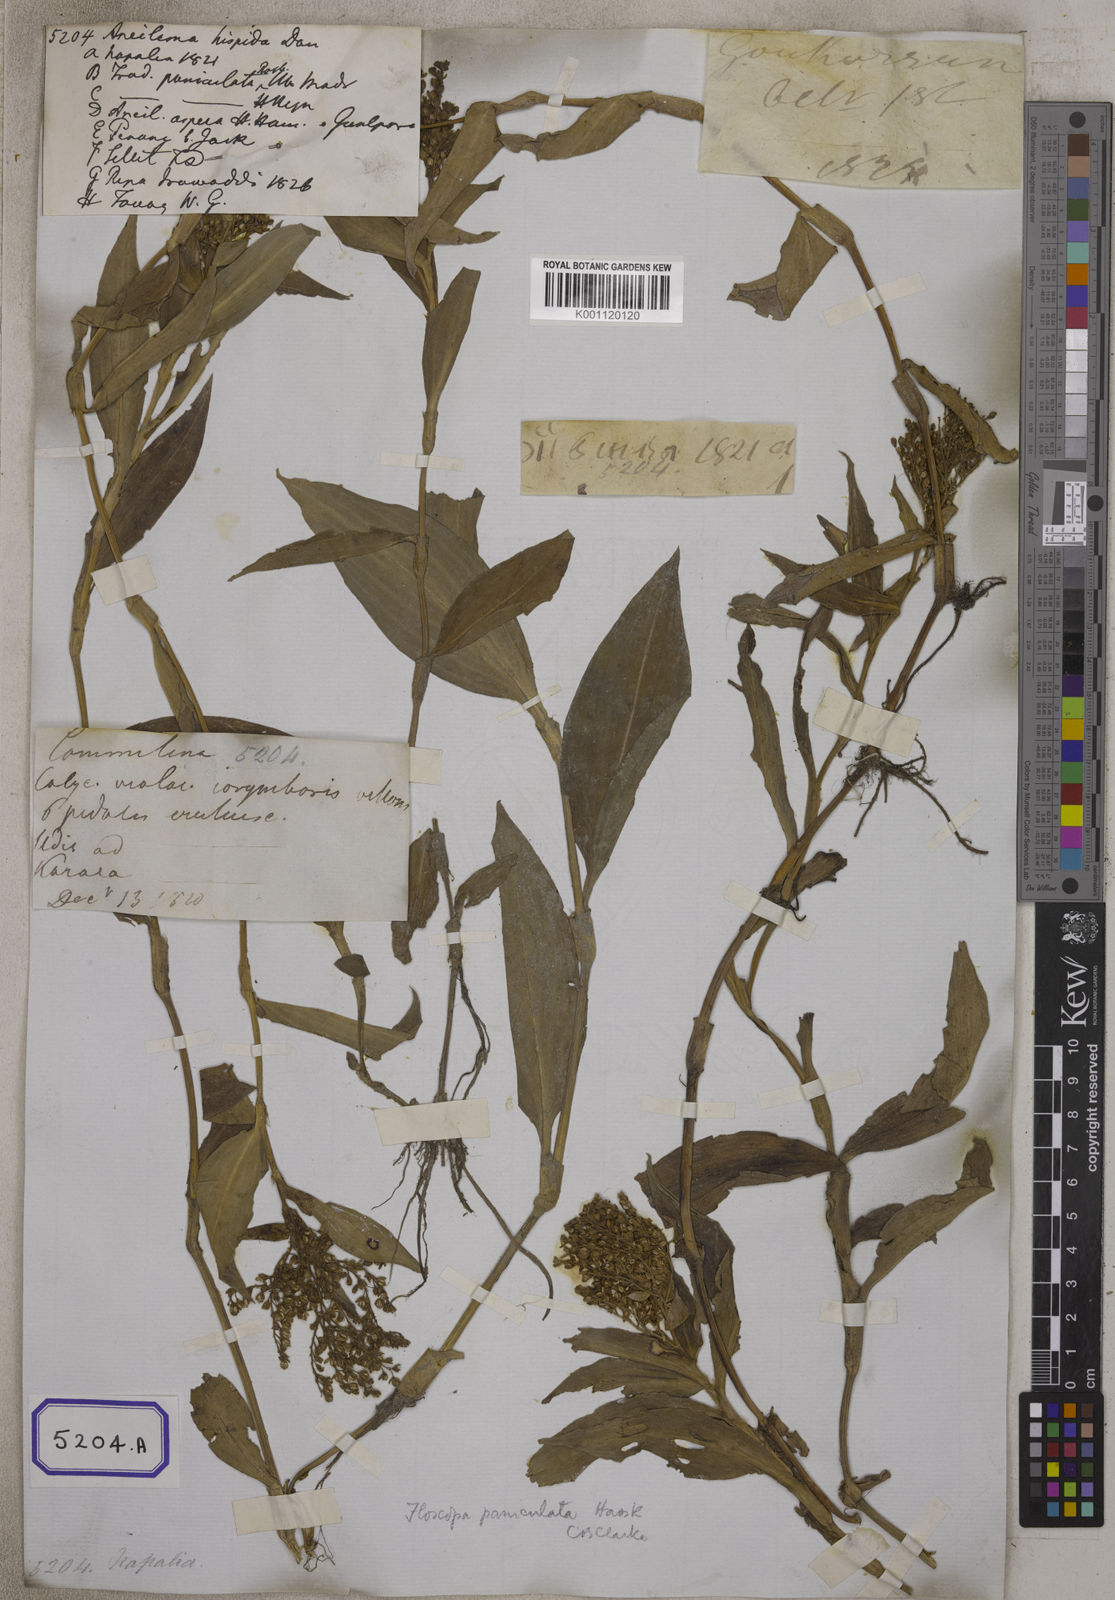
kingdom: Plantae
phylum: Tracheophyta
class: Liliopsida
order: Commelinales
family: Commelinaceae
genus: Floscopa
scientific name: Floscopa scandens
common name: Climbing flower cup
